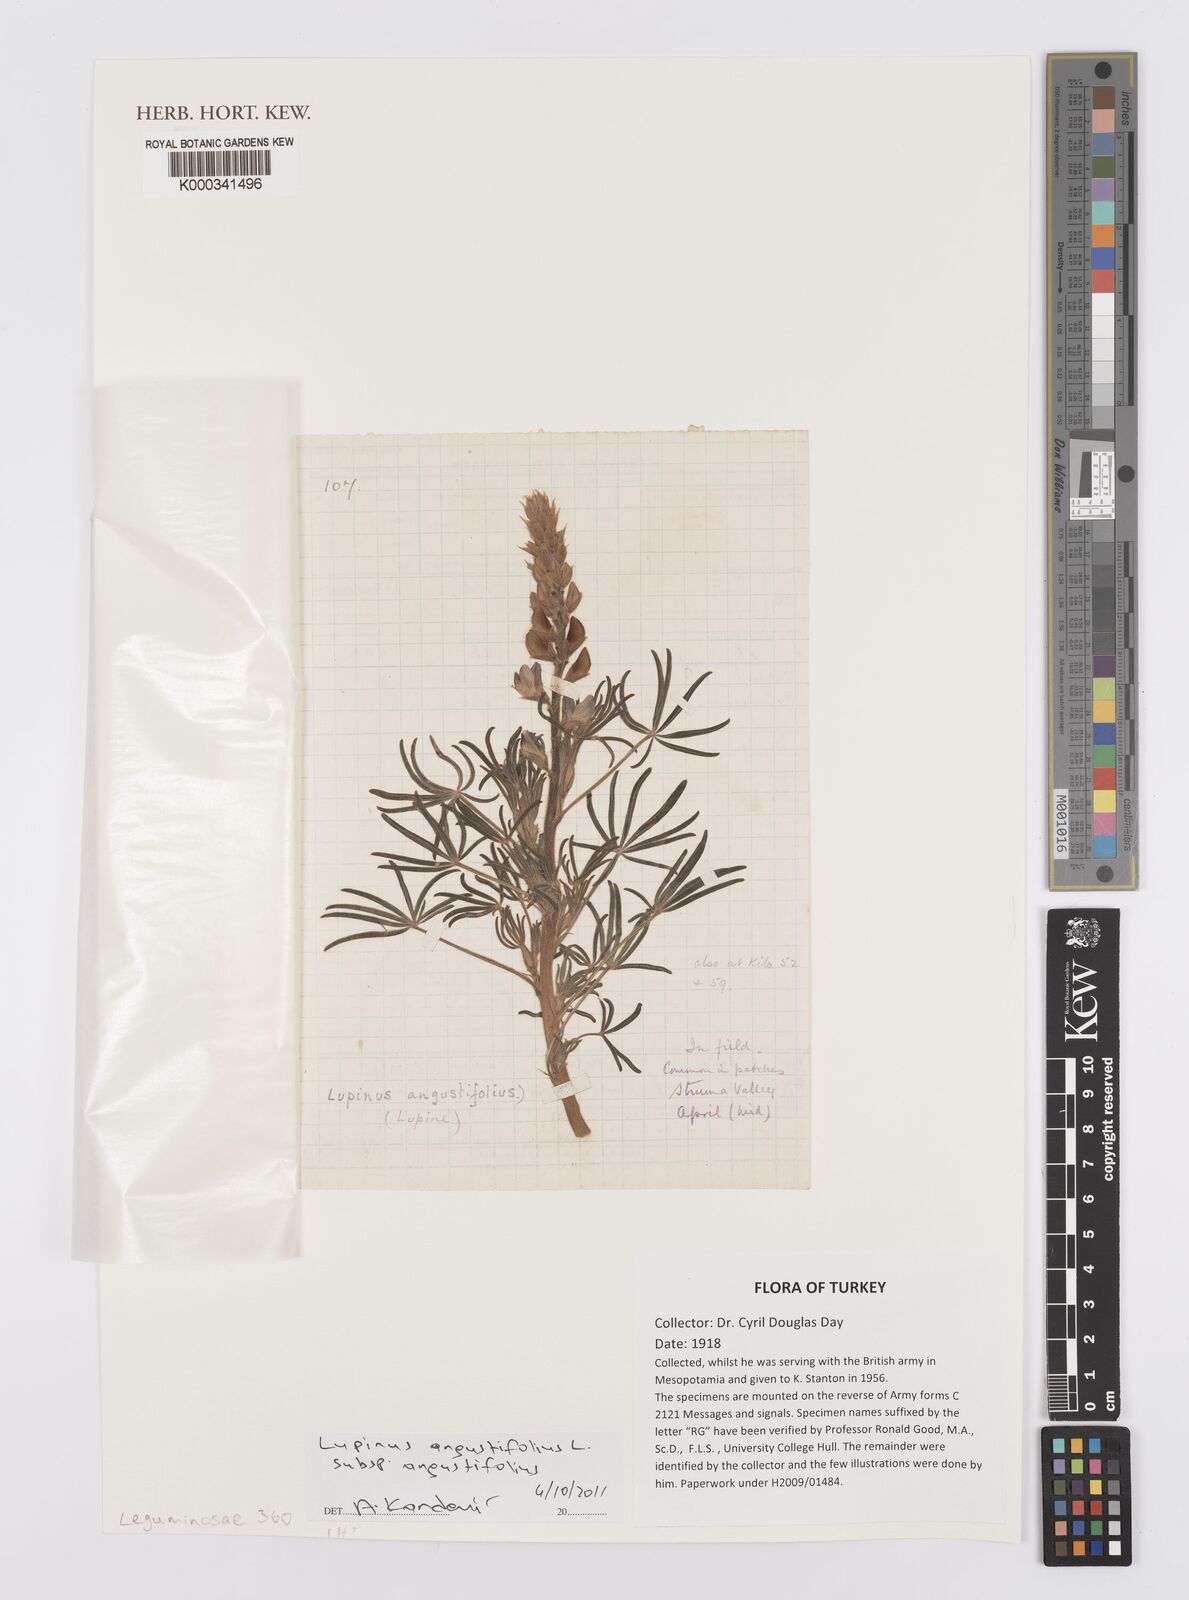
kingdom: Plantae
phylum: Tracheophyta
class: Magnoliopsida
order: Fabales
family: Fabaceae
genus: Lupinus
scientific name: Lupinus angustifolius
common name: Narrow-leaved lupin
